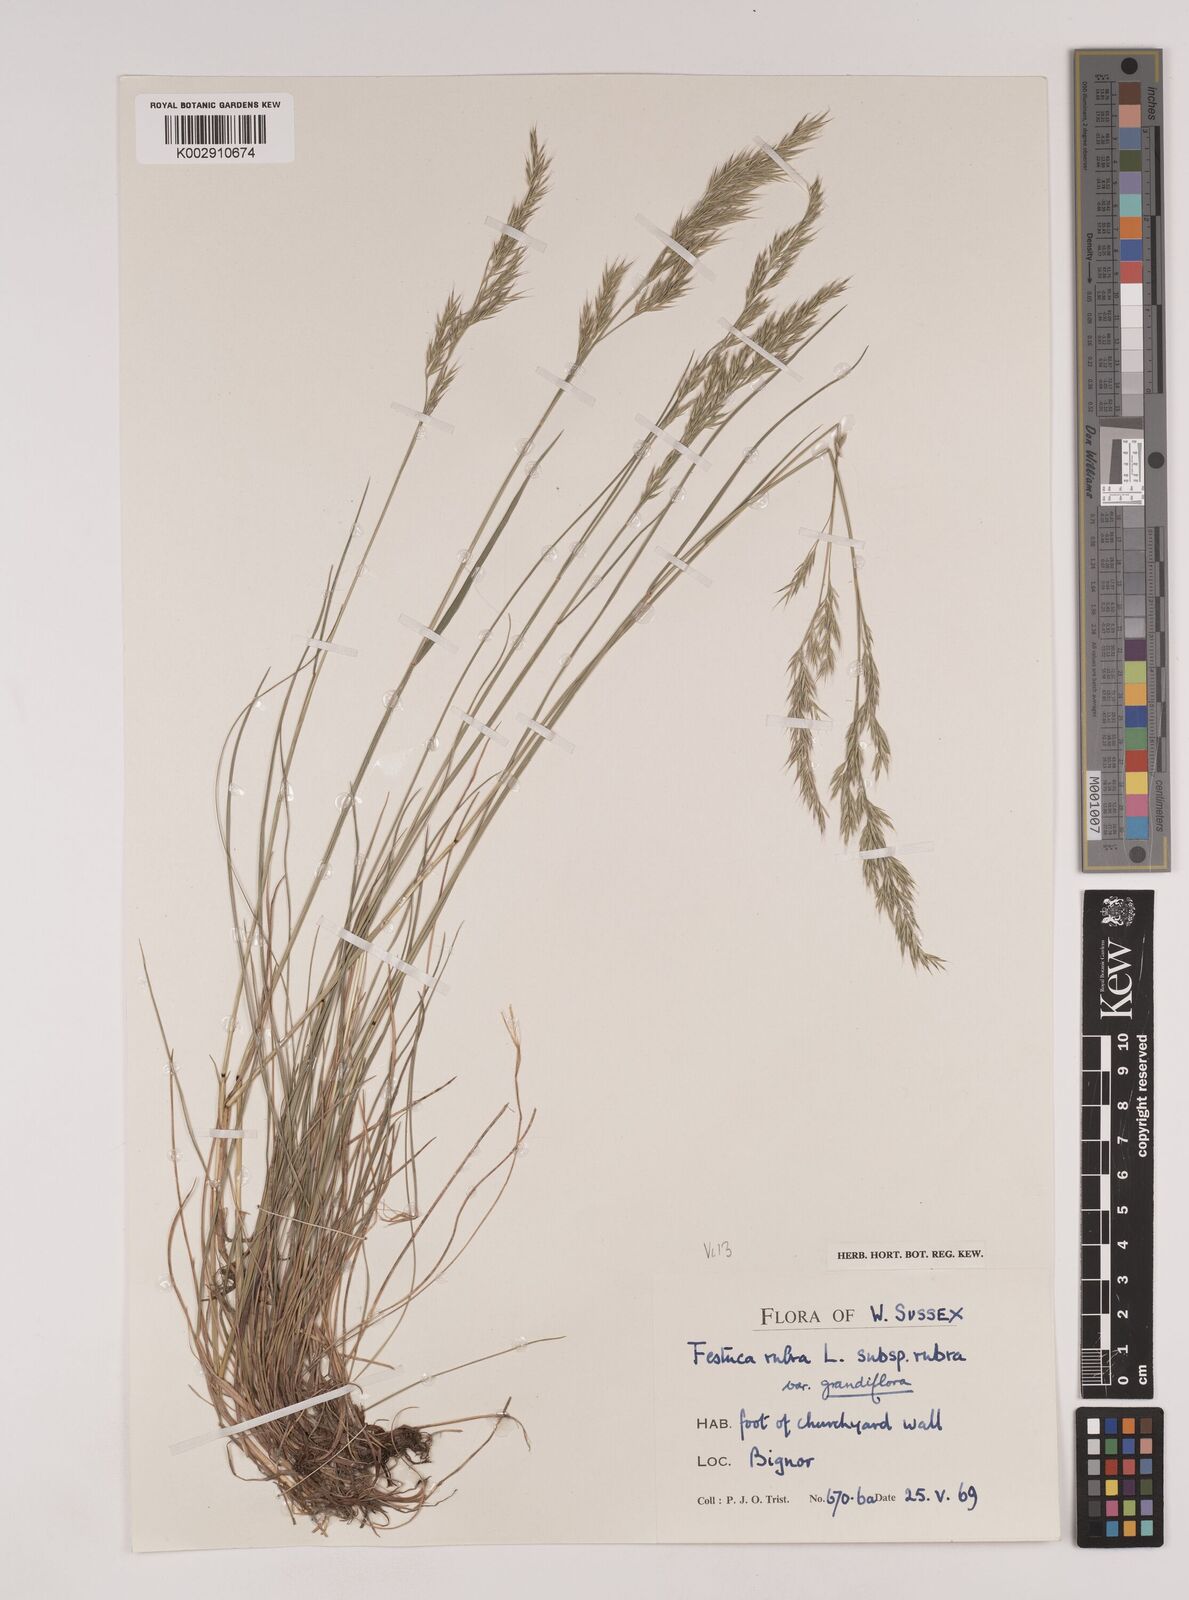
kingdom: Plantae
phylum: Tracheophyta
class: Liliopsida
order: Poales
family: Poaceae
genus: Festuca
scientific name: Festuca rubra
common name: Red fescue
